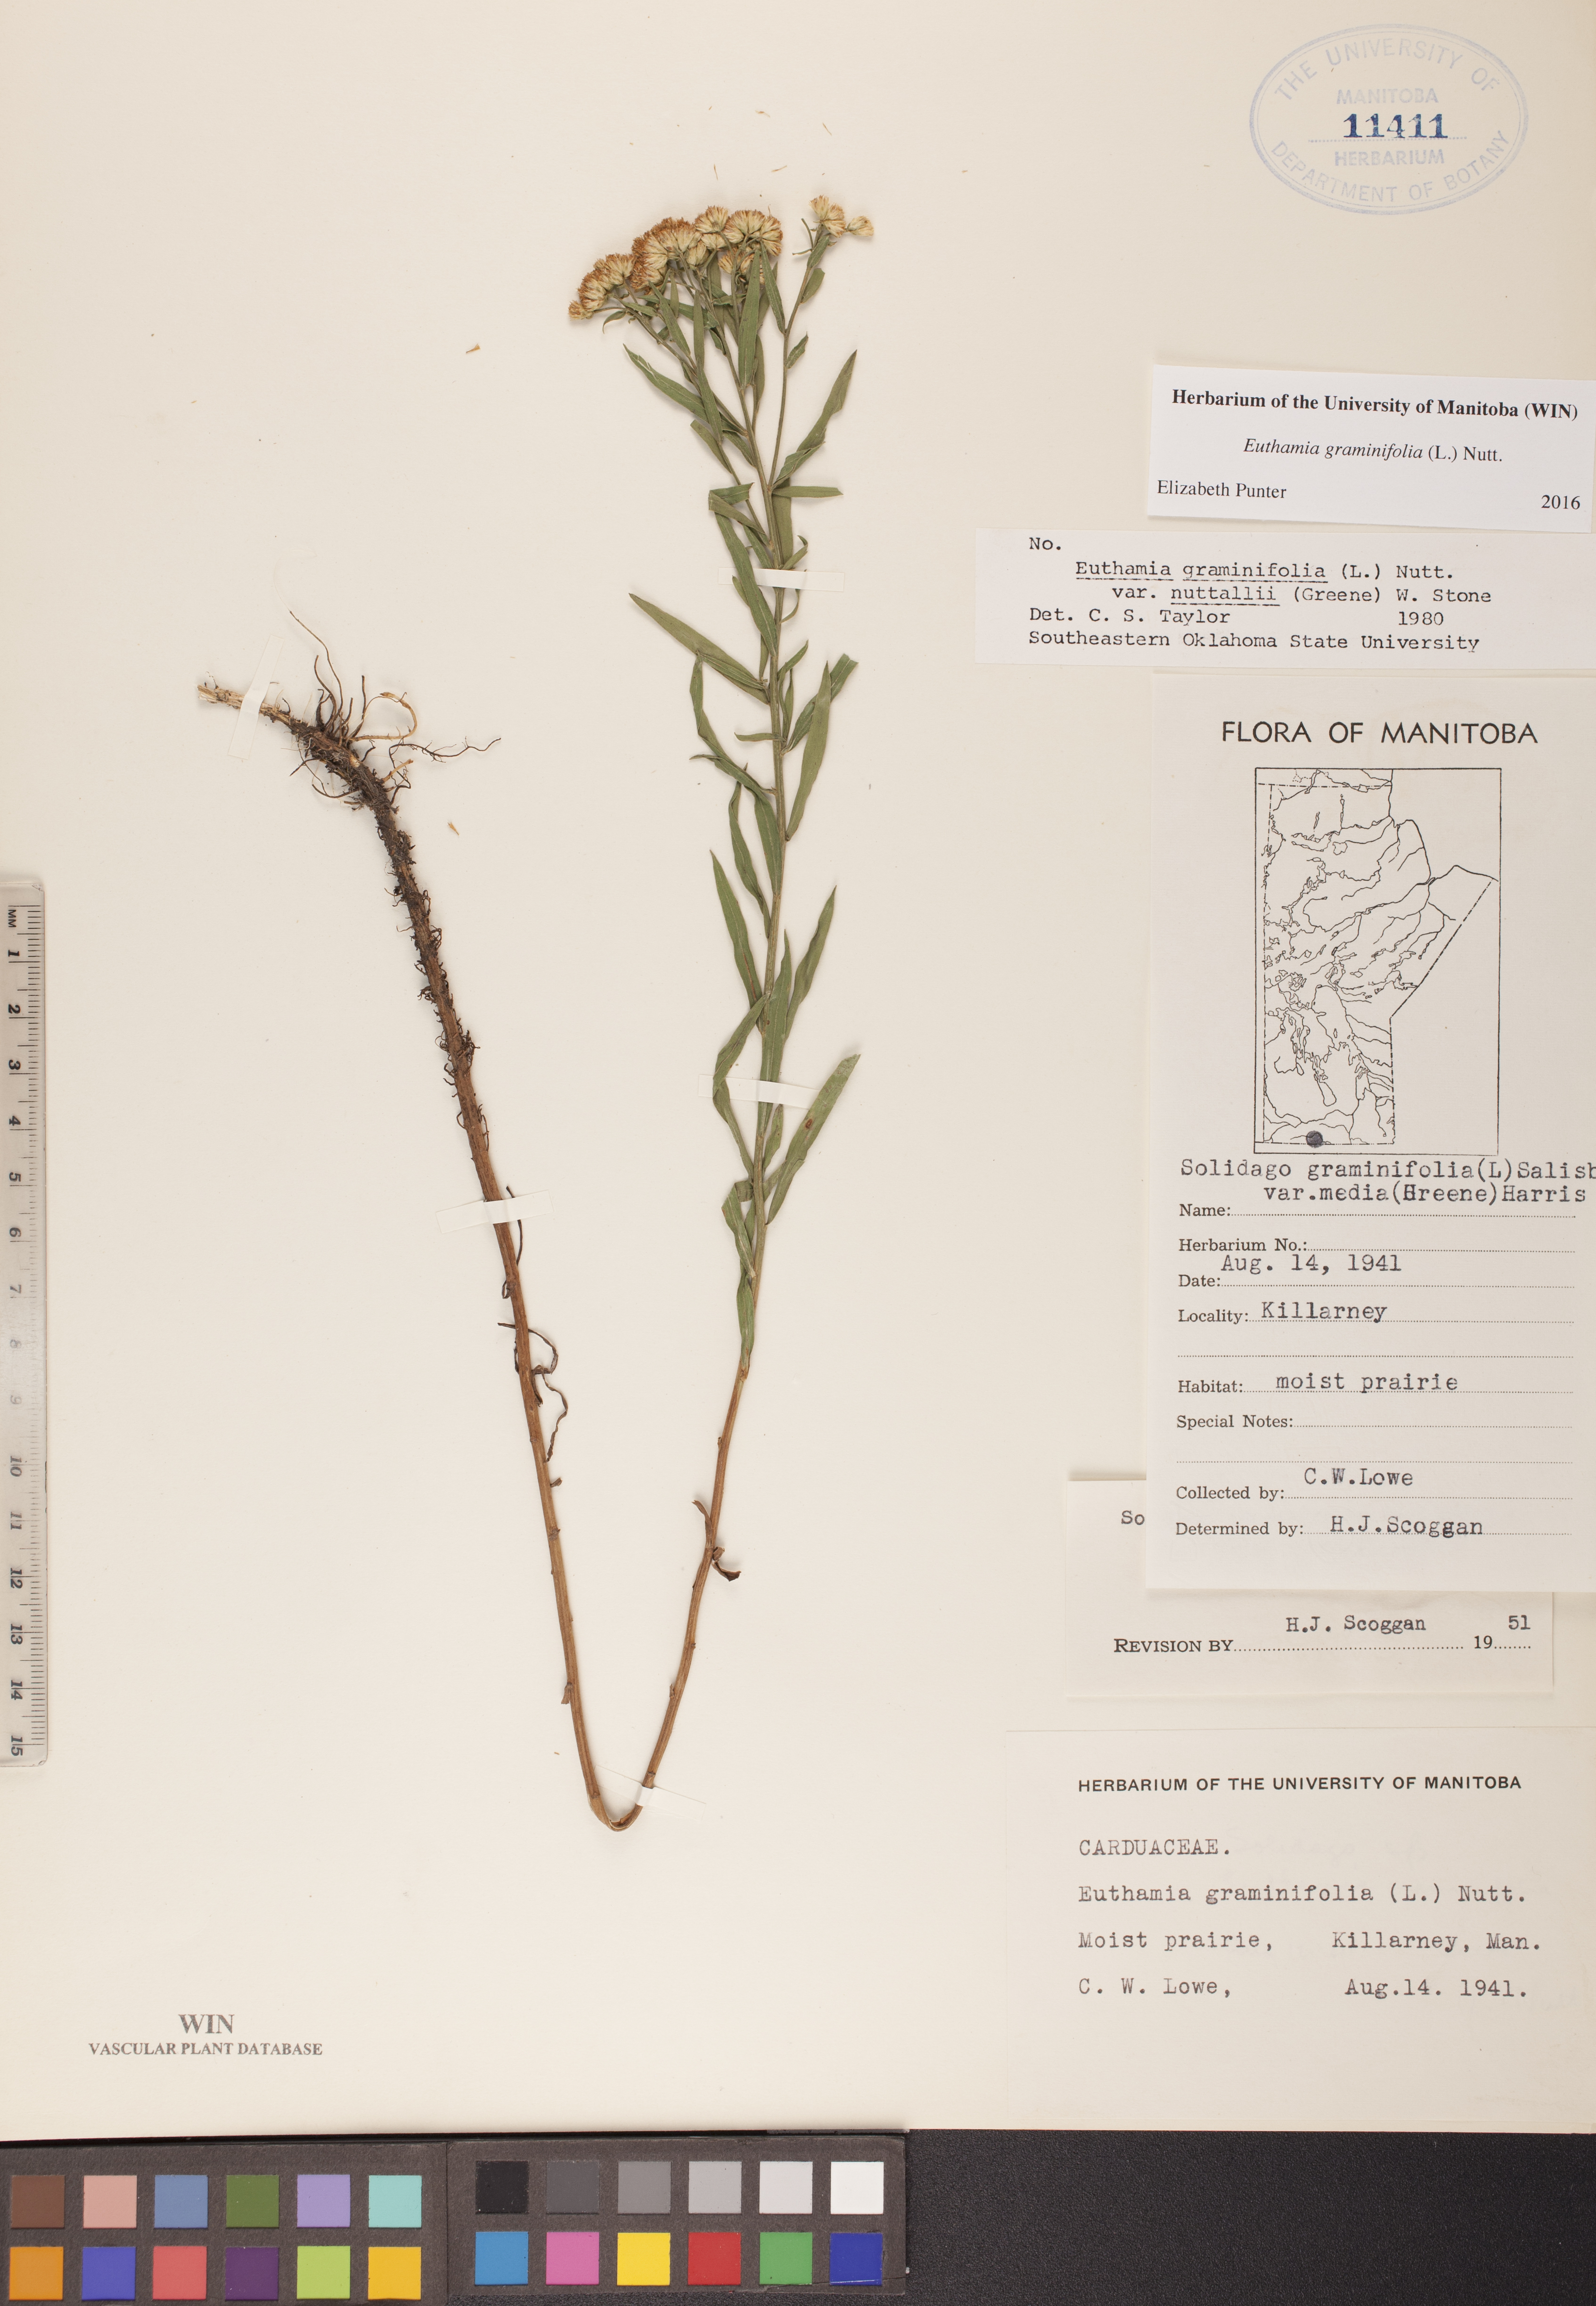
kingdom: Plantae
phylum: Tracheophyta
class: Magnoliopsida
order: Asterales
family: Asteraceae
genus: Euthamia
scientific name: Euthamia graminifolia
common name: Common goldentop
